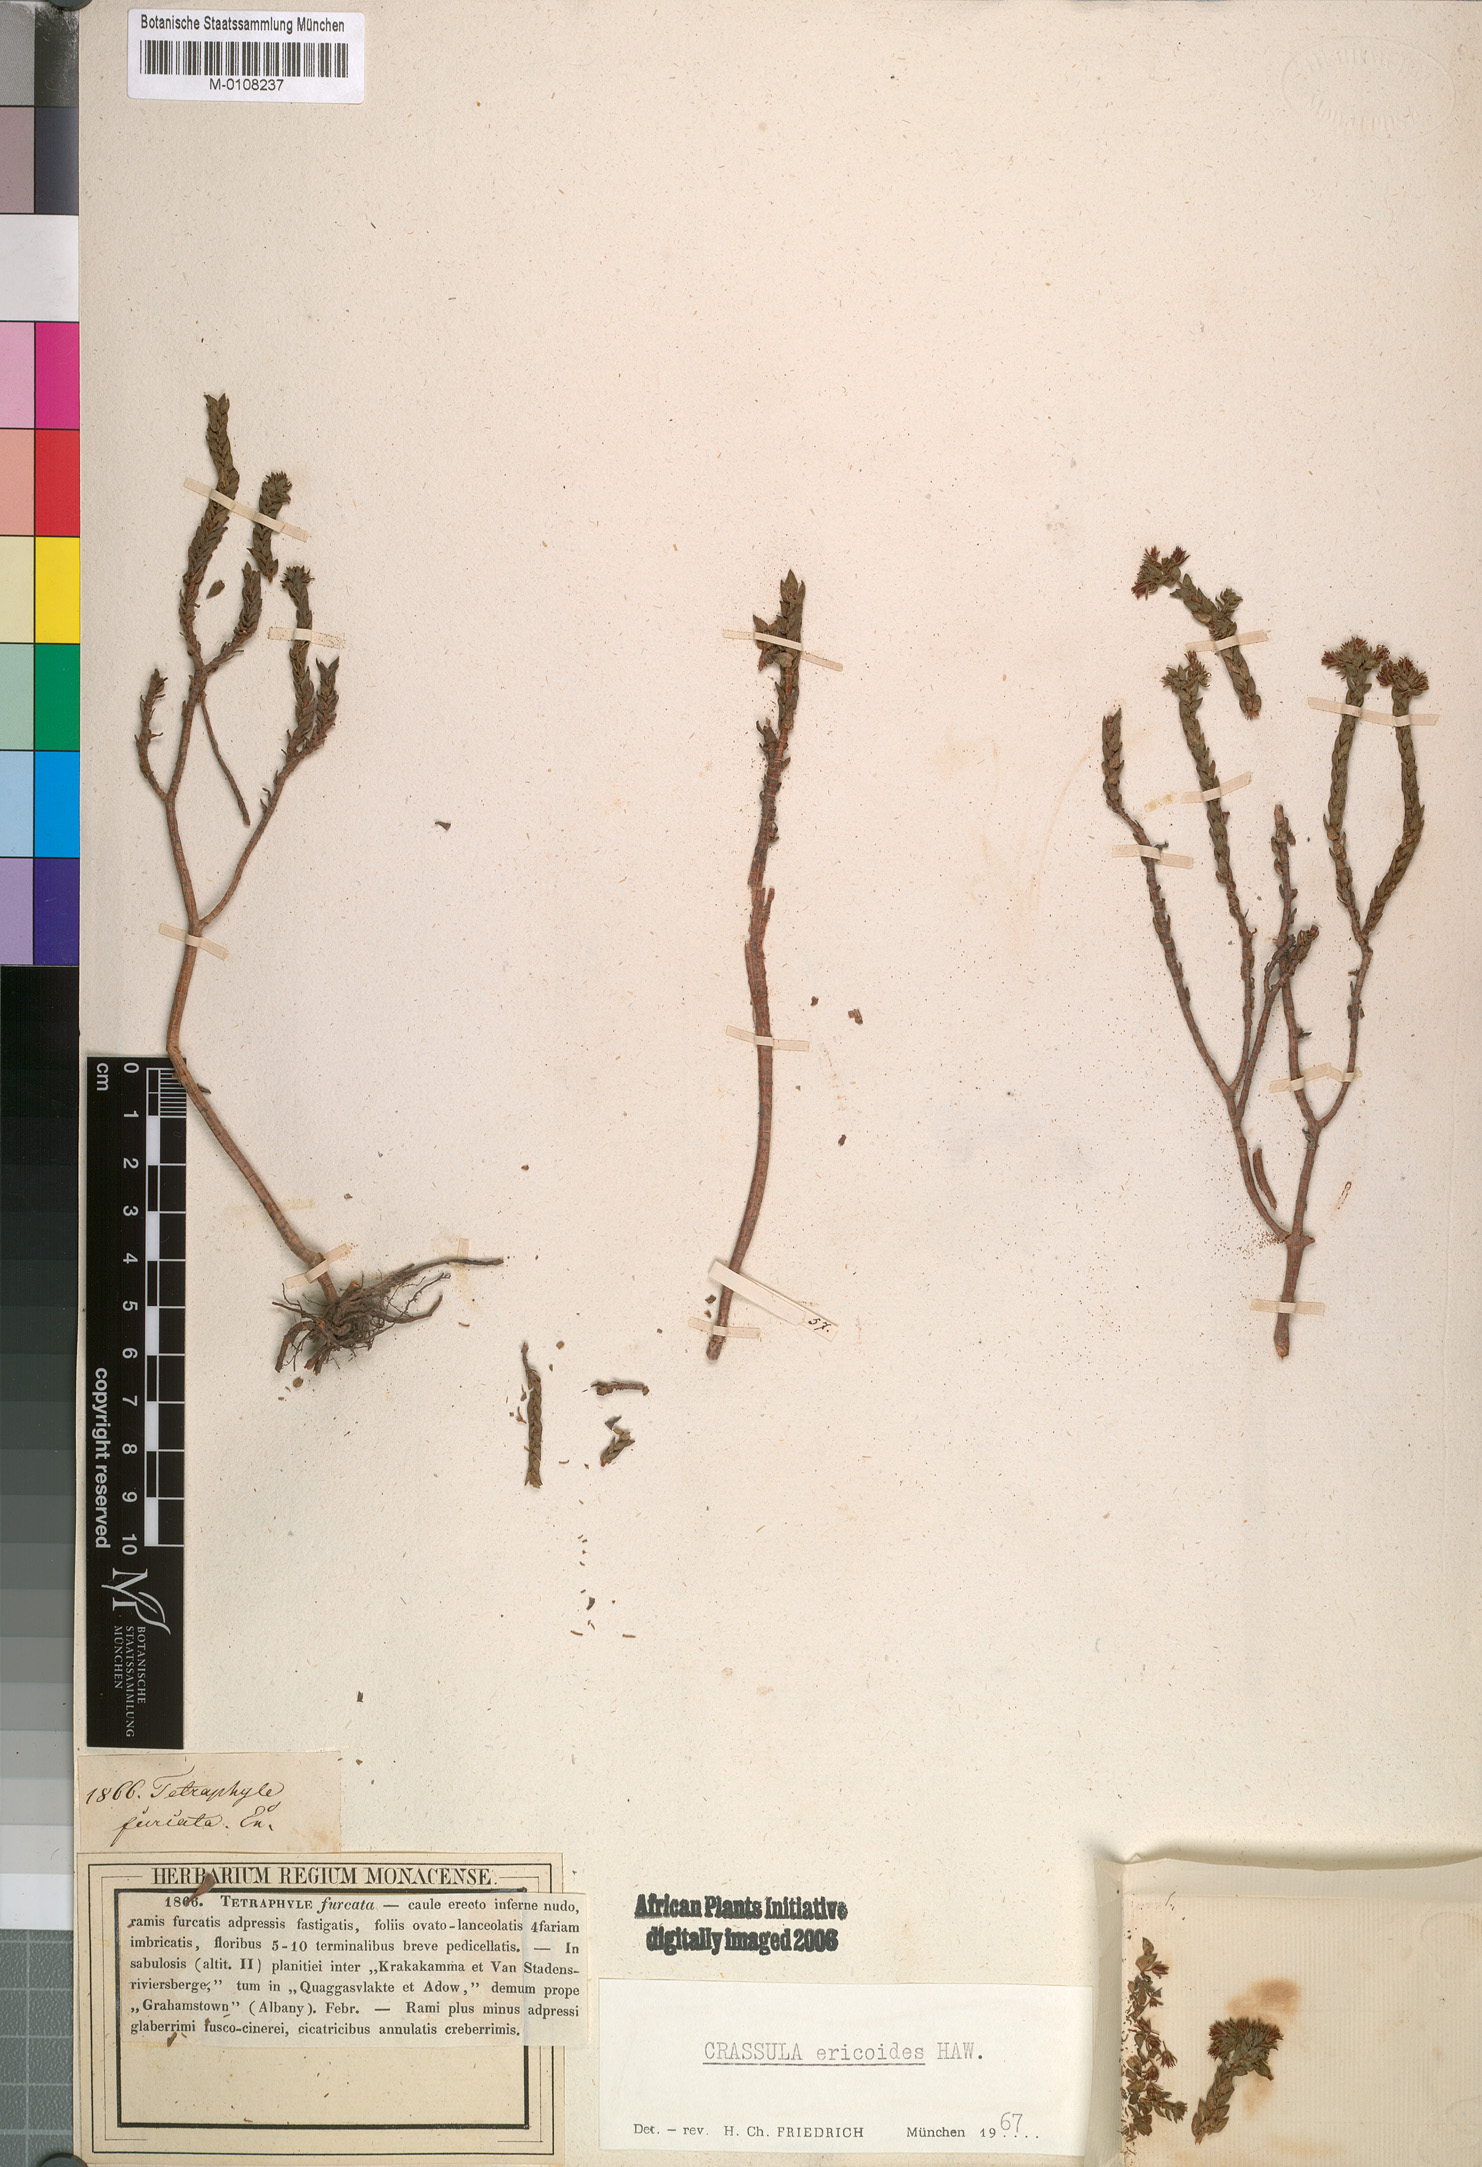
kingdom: Plantae
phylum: Tracheophyta
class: Magnoliopsida
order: Saxifragales
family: Crassulaceae
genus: Crassula
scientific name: Crassula ericoides
